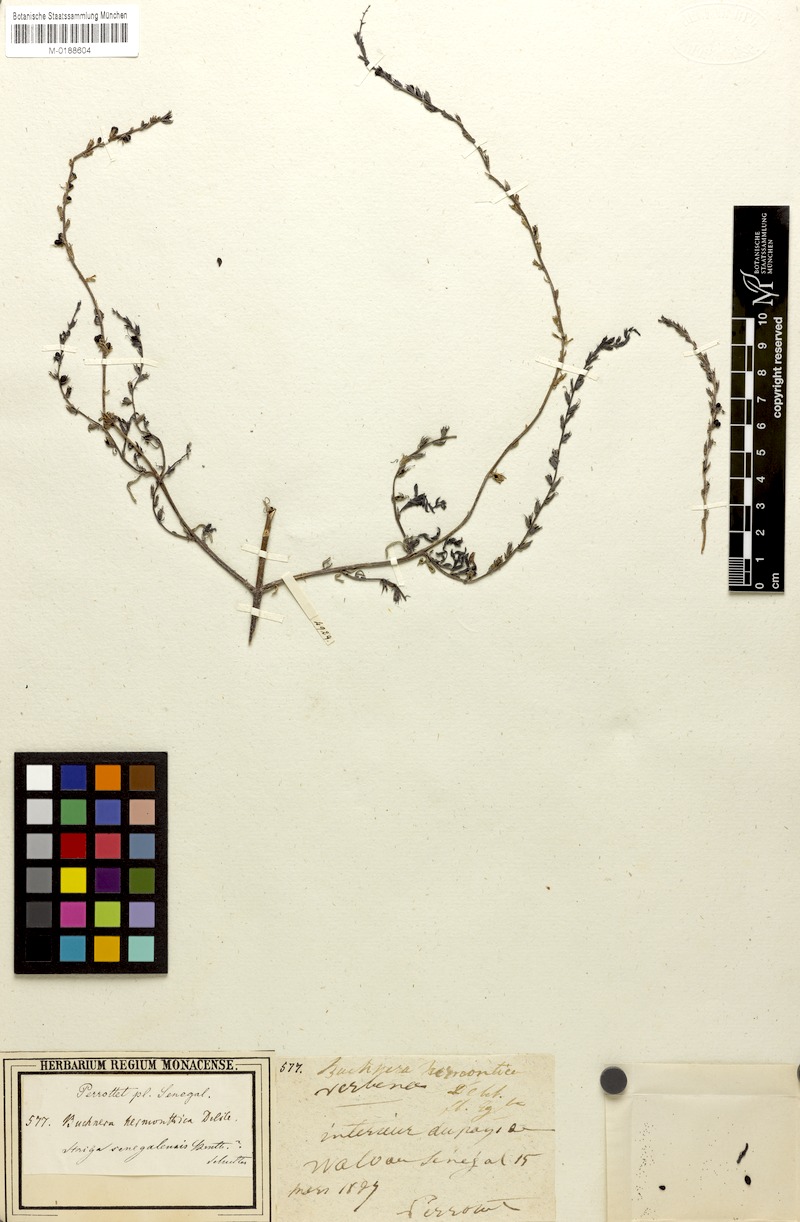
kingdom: Plantae
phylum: Tracheophyta
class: Magnoliopsida
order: Lamiales
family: Orobanchaceae
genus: Striga
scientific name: Striga hermonthica
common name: Purple witchweed
